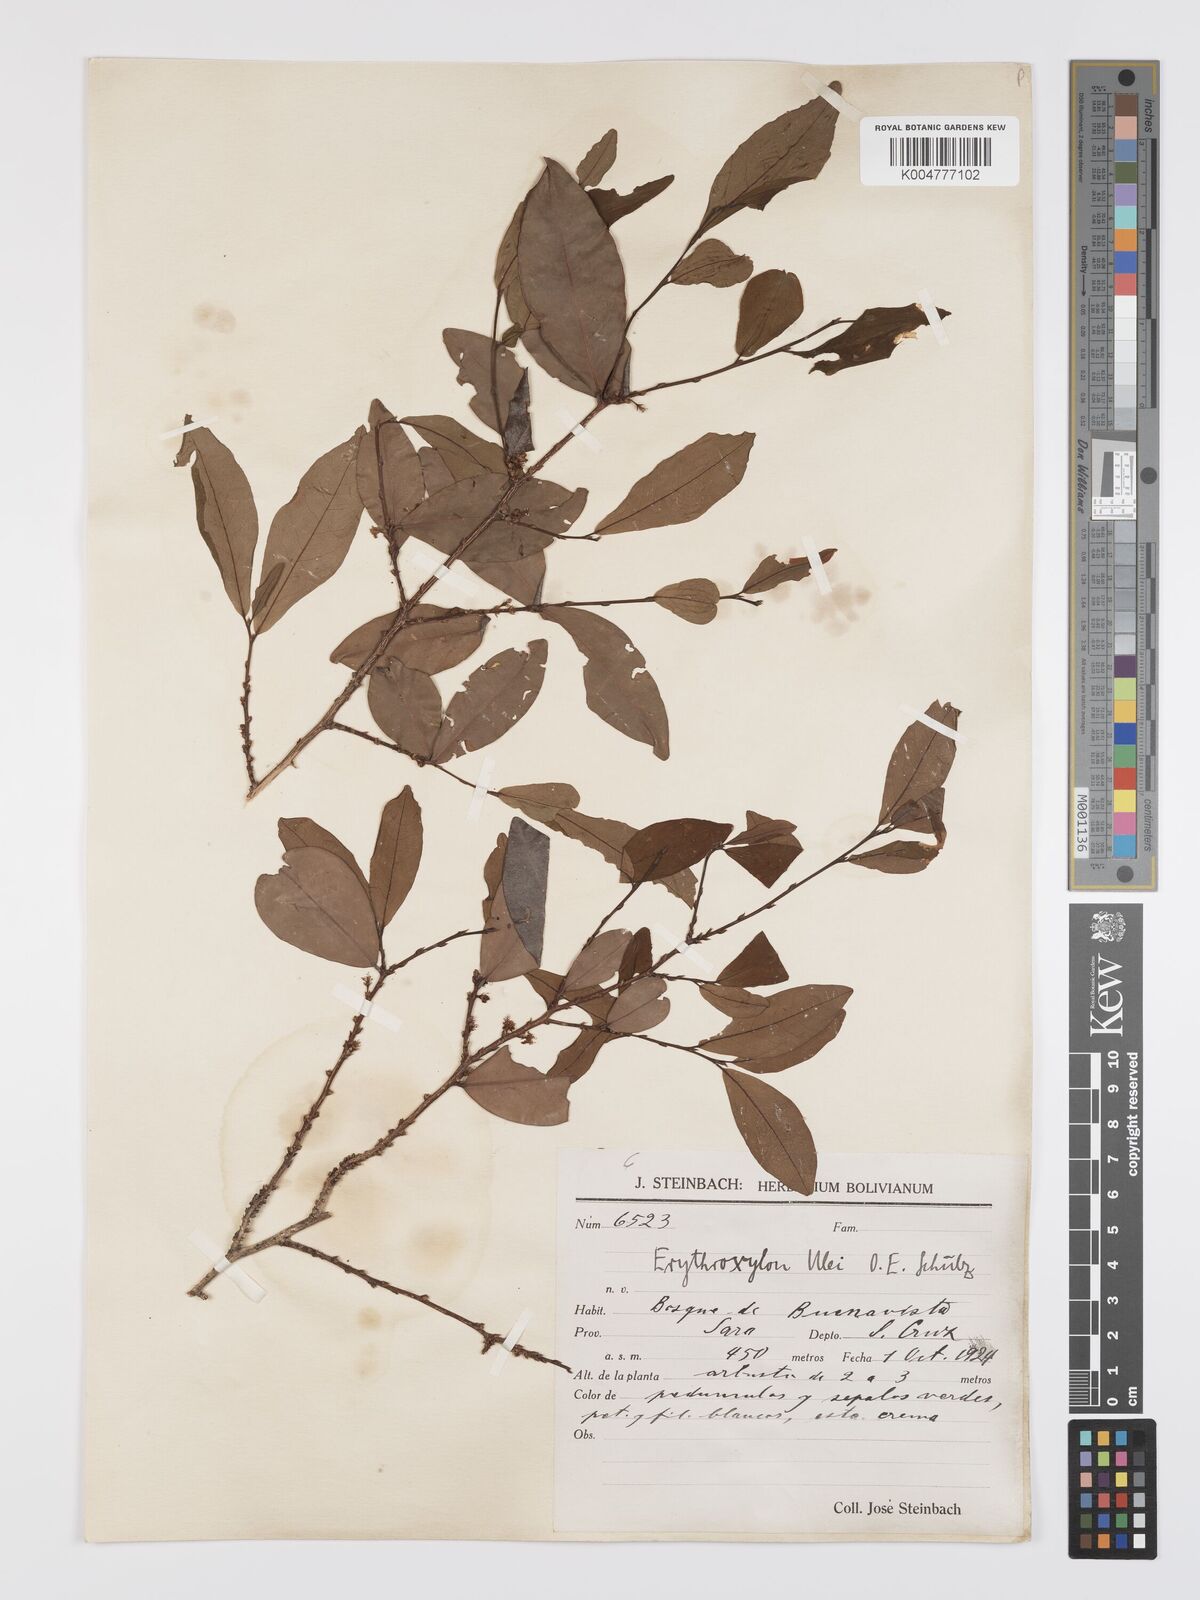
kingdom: Plantae
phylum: Tracheophyta
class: Magnoliopsida
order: Malpighiales
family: Erythroxylaceae
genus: Erythroxylum
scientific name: Erythroxylum ulei
